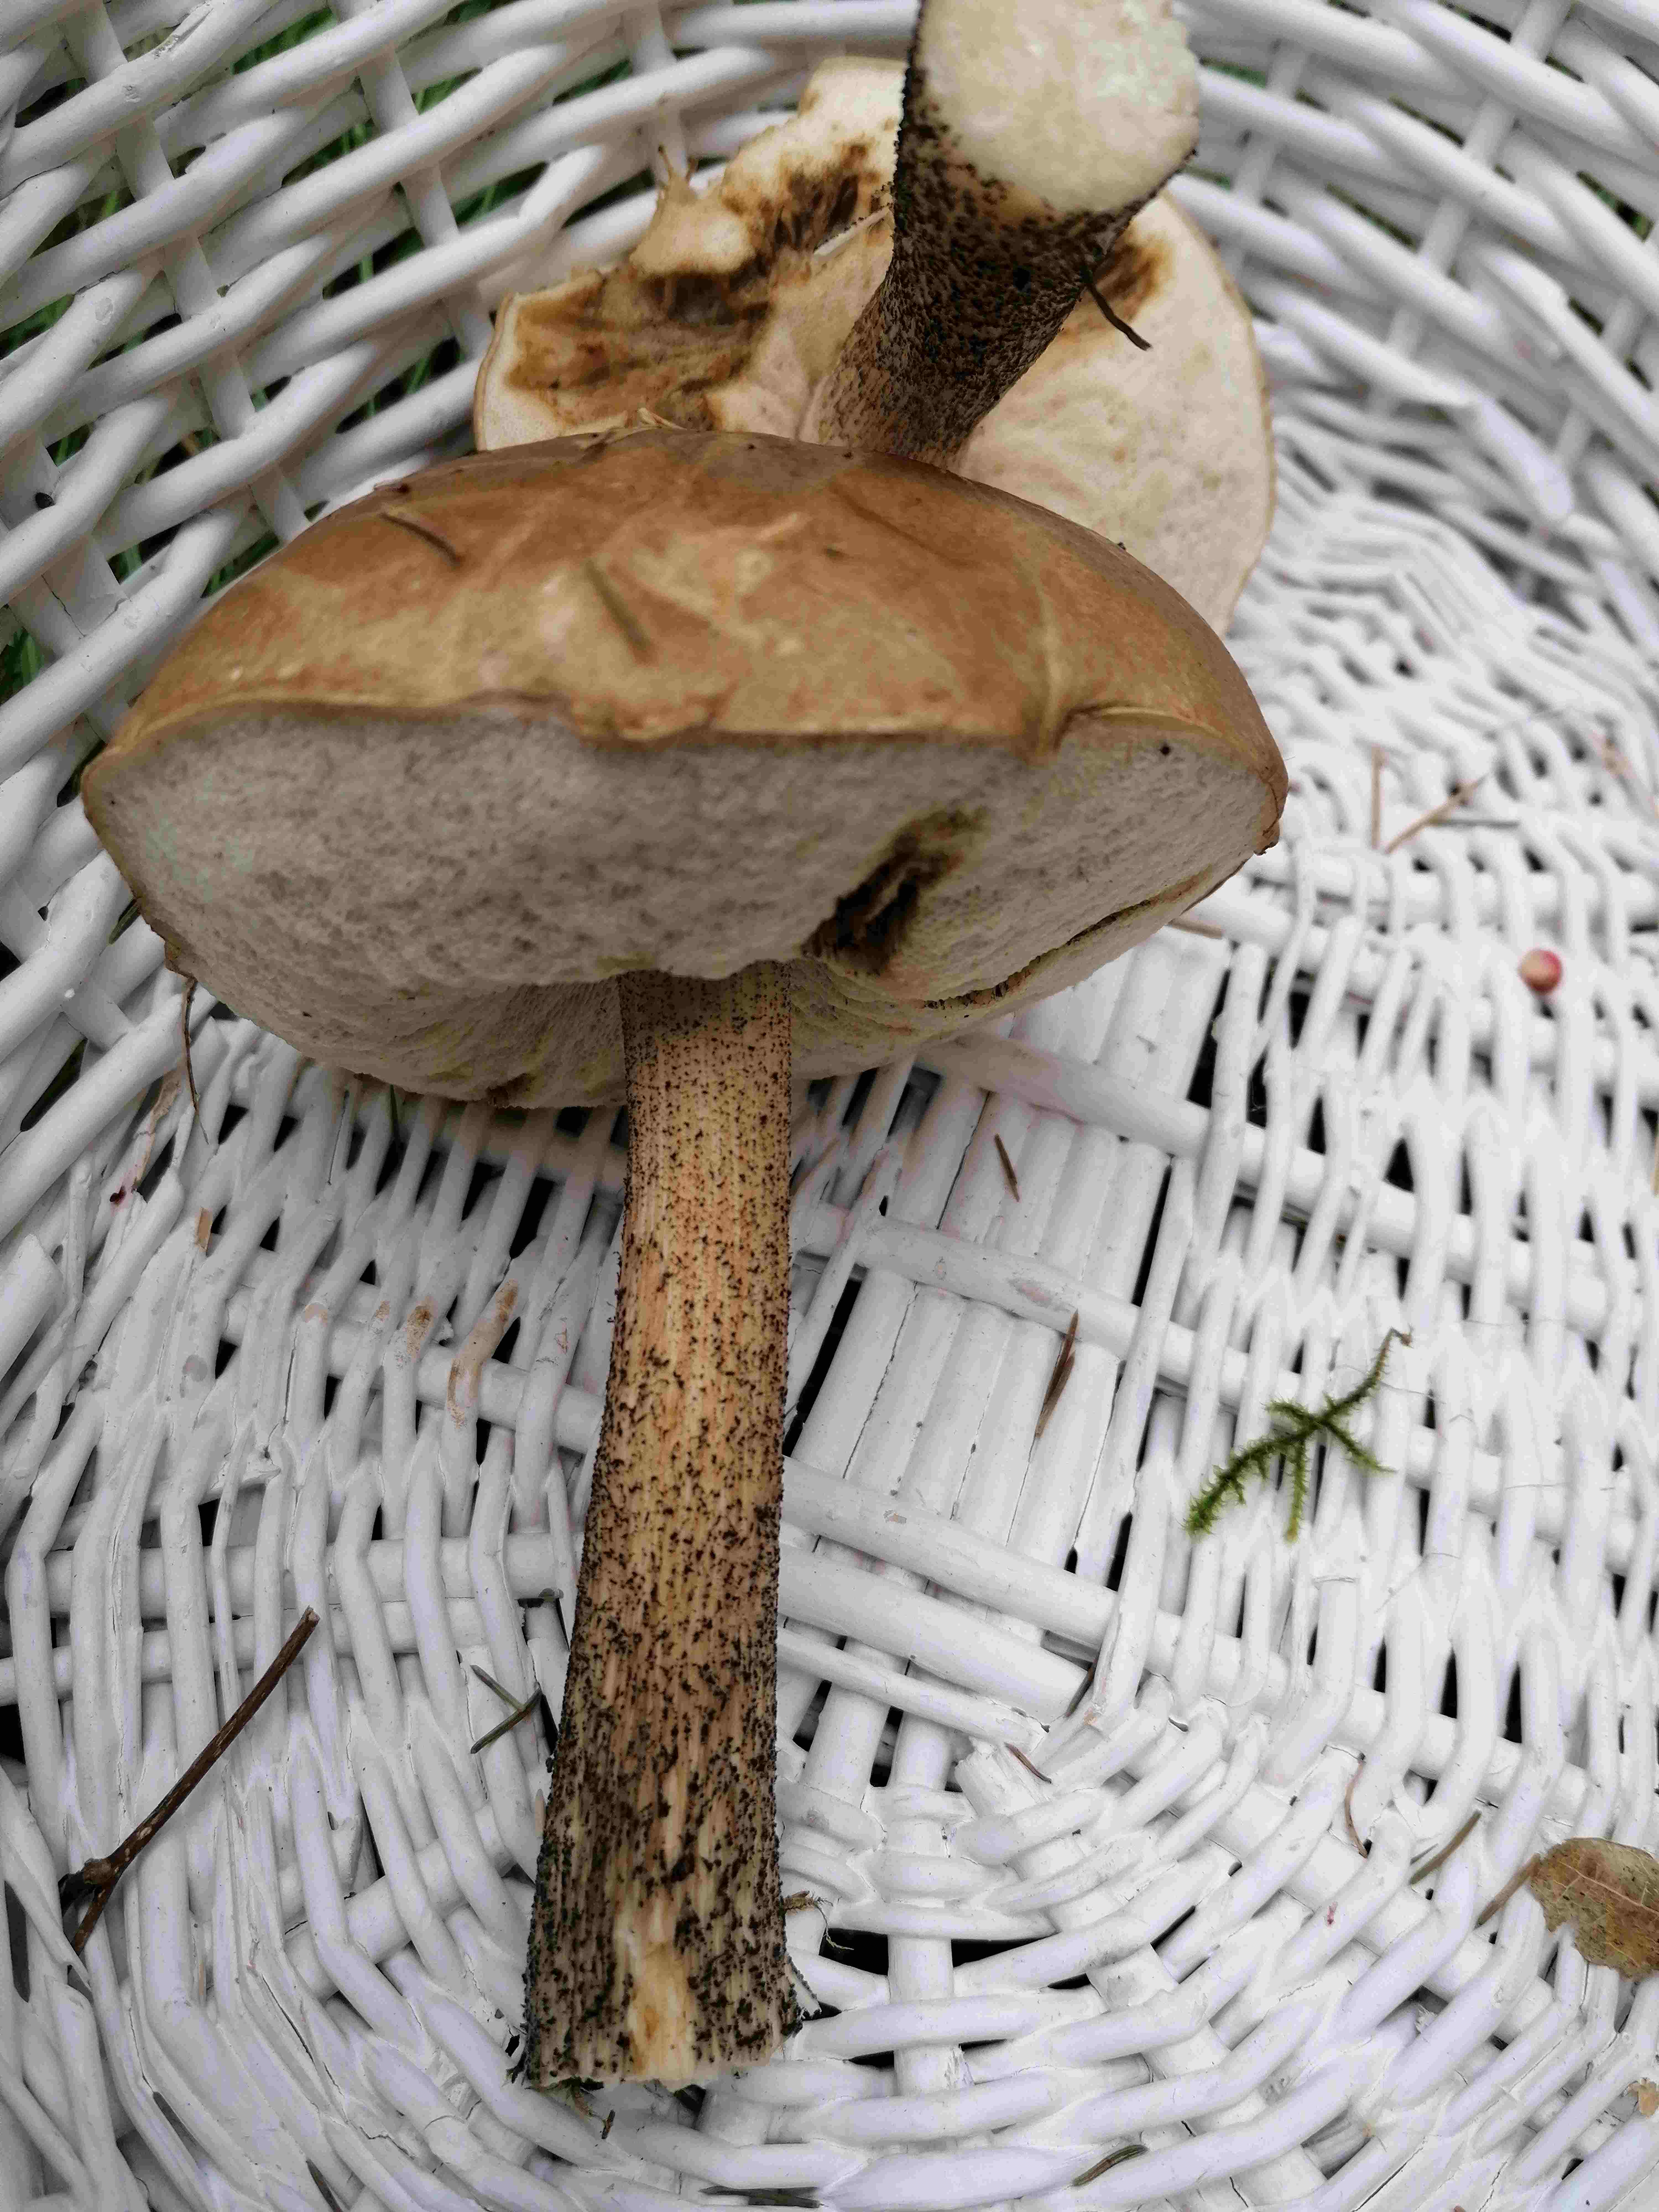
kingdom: Fungi
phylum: Basidiomycota
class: Agaricomycetes
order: Boletales
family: Boletaceae
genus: Leccinum
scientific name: Leccinum scabrum
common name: brun skælrørhat
